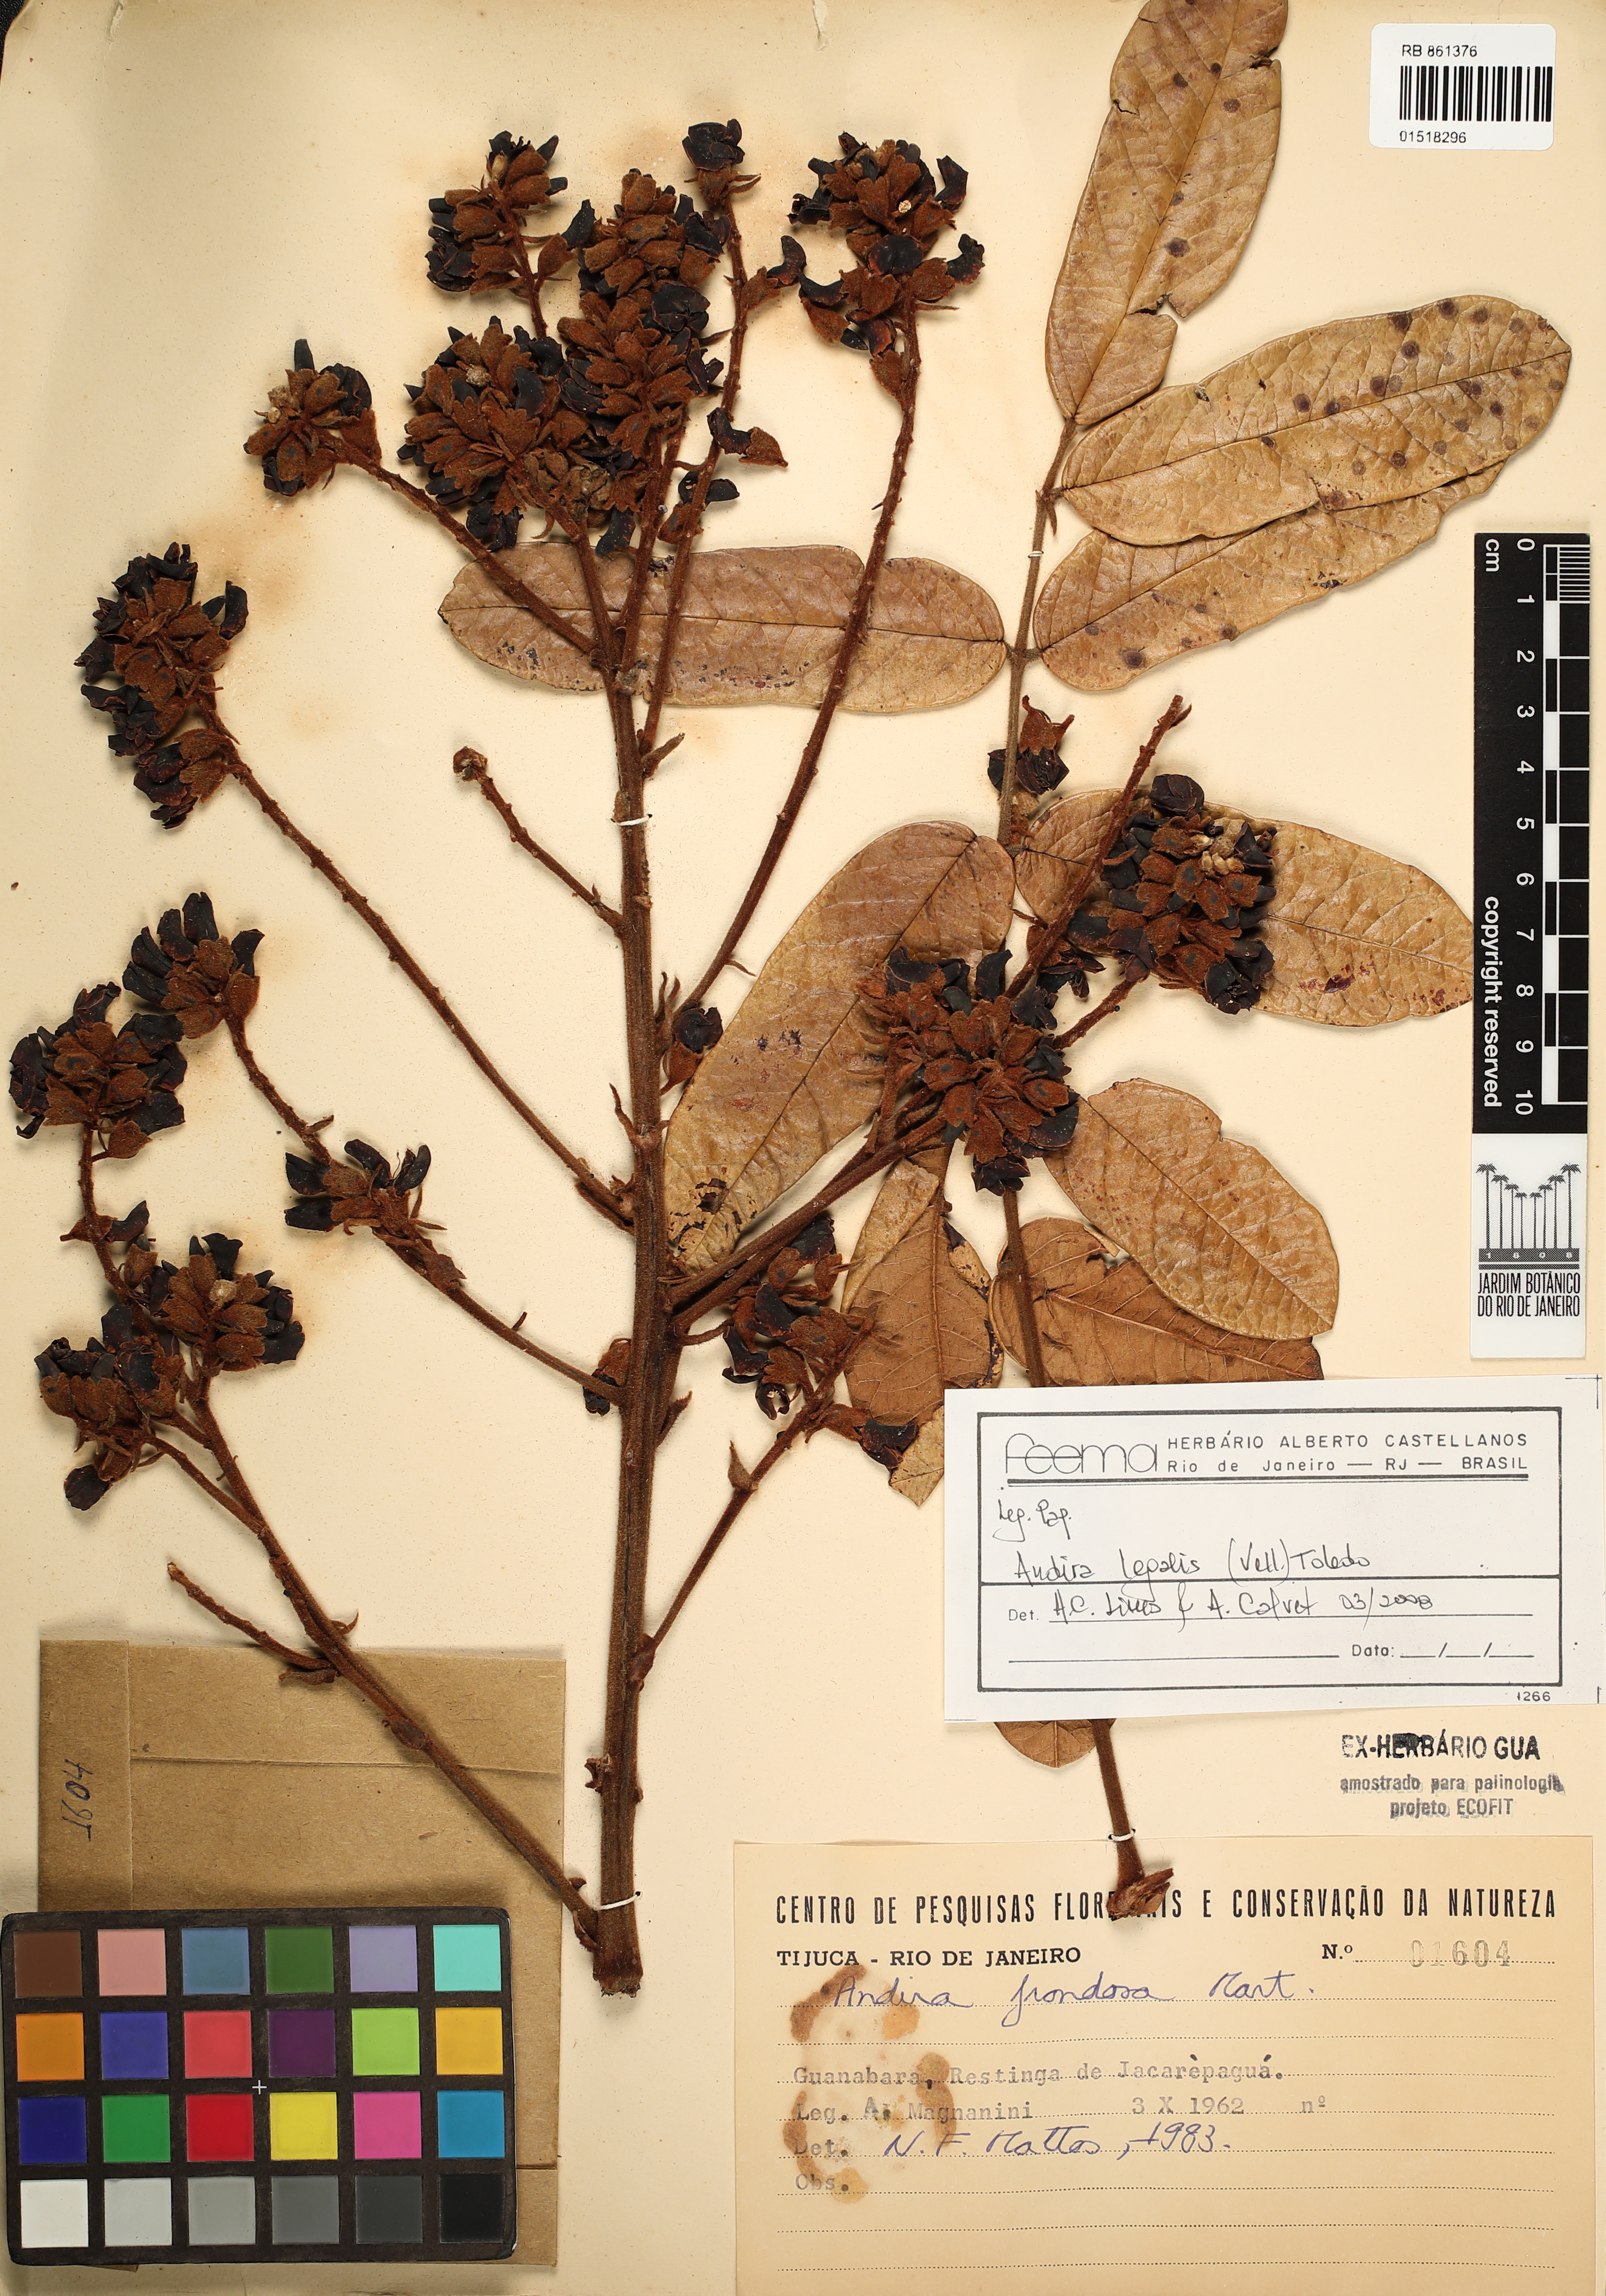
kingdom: Plantae
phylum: Tracheophyta
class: Magnoliopsida
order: Fabales
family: Fabaceae
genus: Andira
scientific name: Andira legalis
